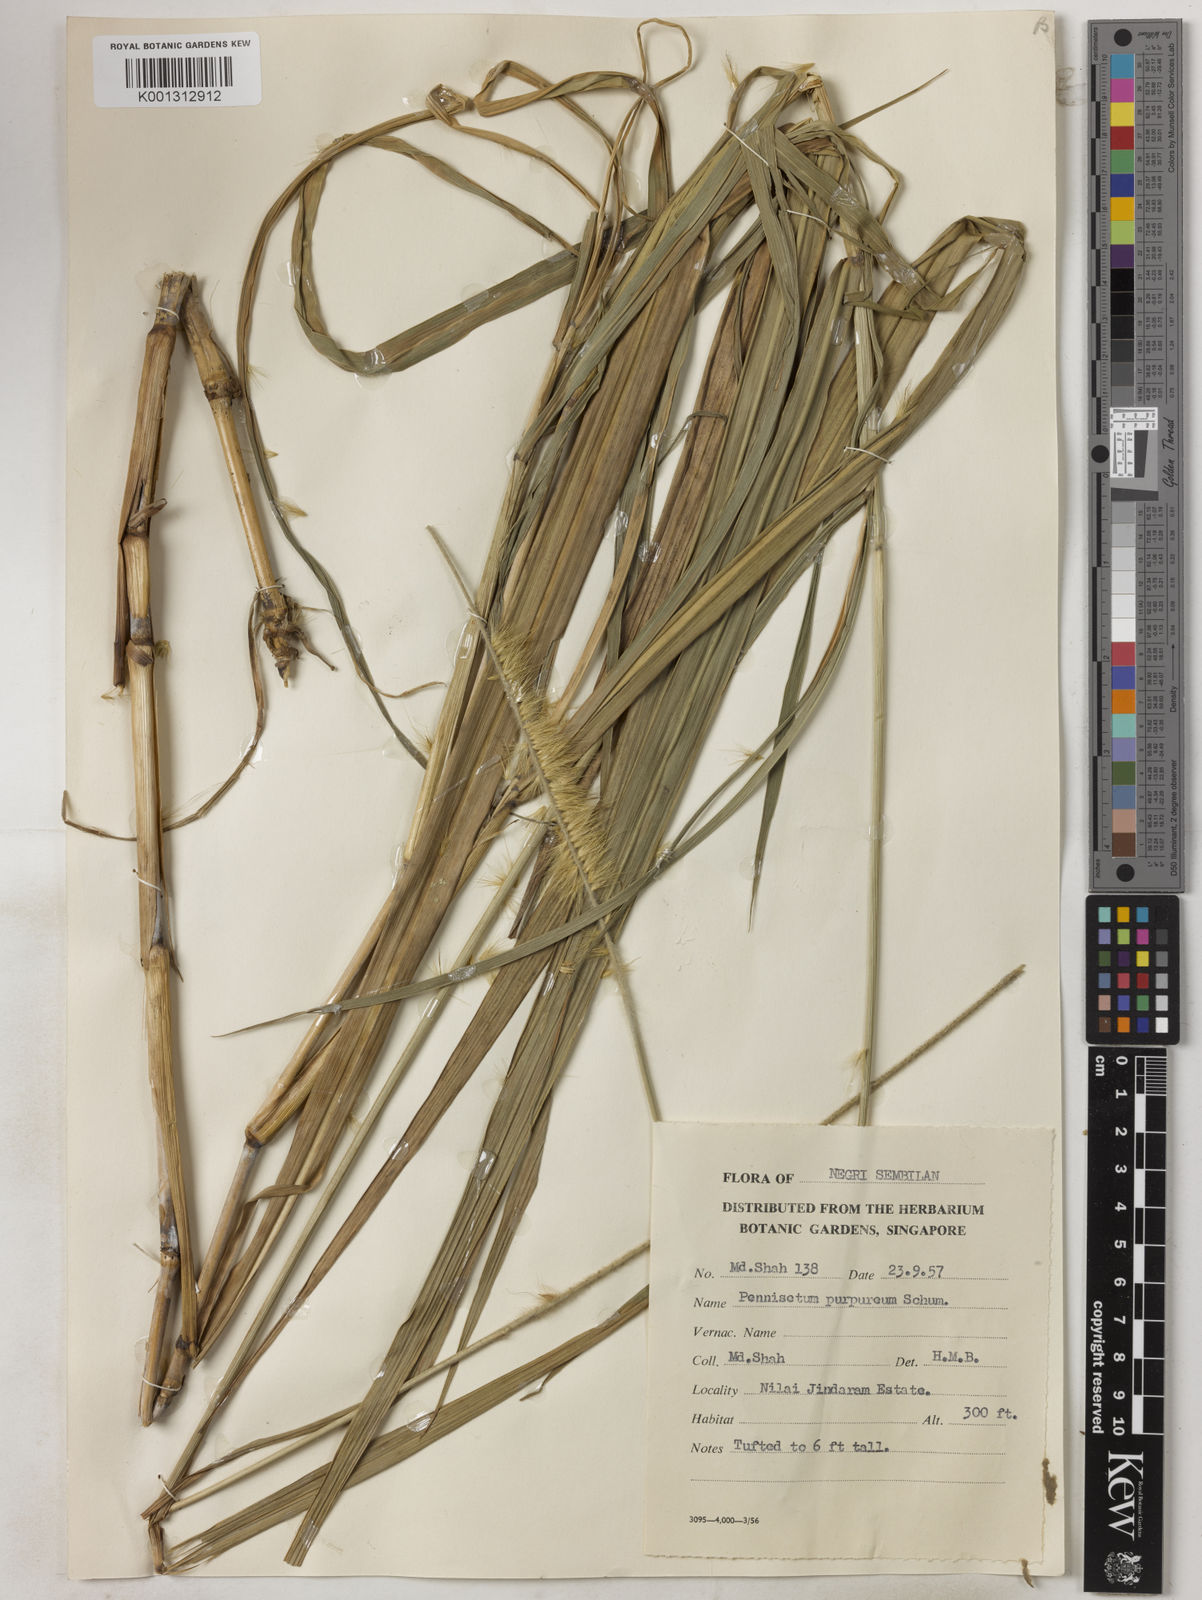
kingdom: Plantae
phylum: Tracheophyta
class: Liliopsida
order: Poales
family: Poaceae
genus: Cenchrus
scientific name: Cenchrus purpureus
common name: Elephant grass
